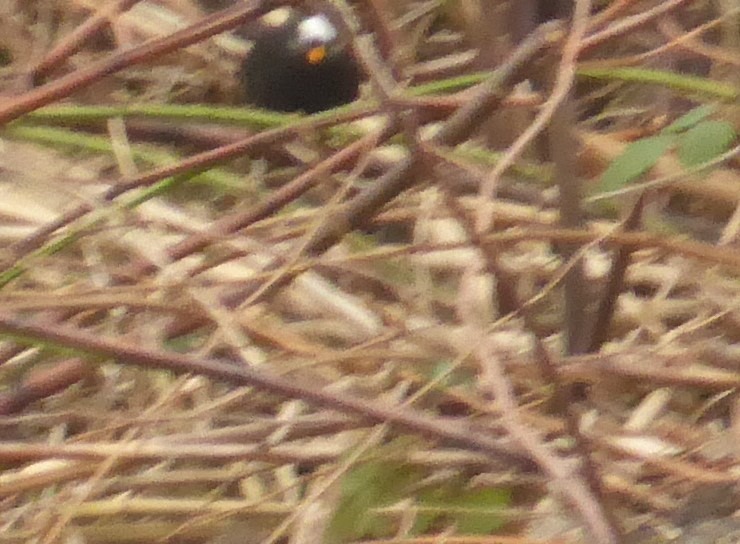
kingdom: Animalia
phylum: Chordata
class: Aves
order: Passeriformes
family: Turdidae
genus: Turdus
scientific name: Turdus merula
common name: Solsort
